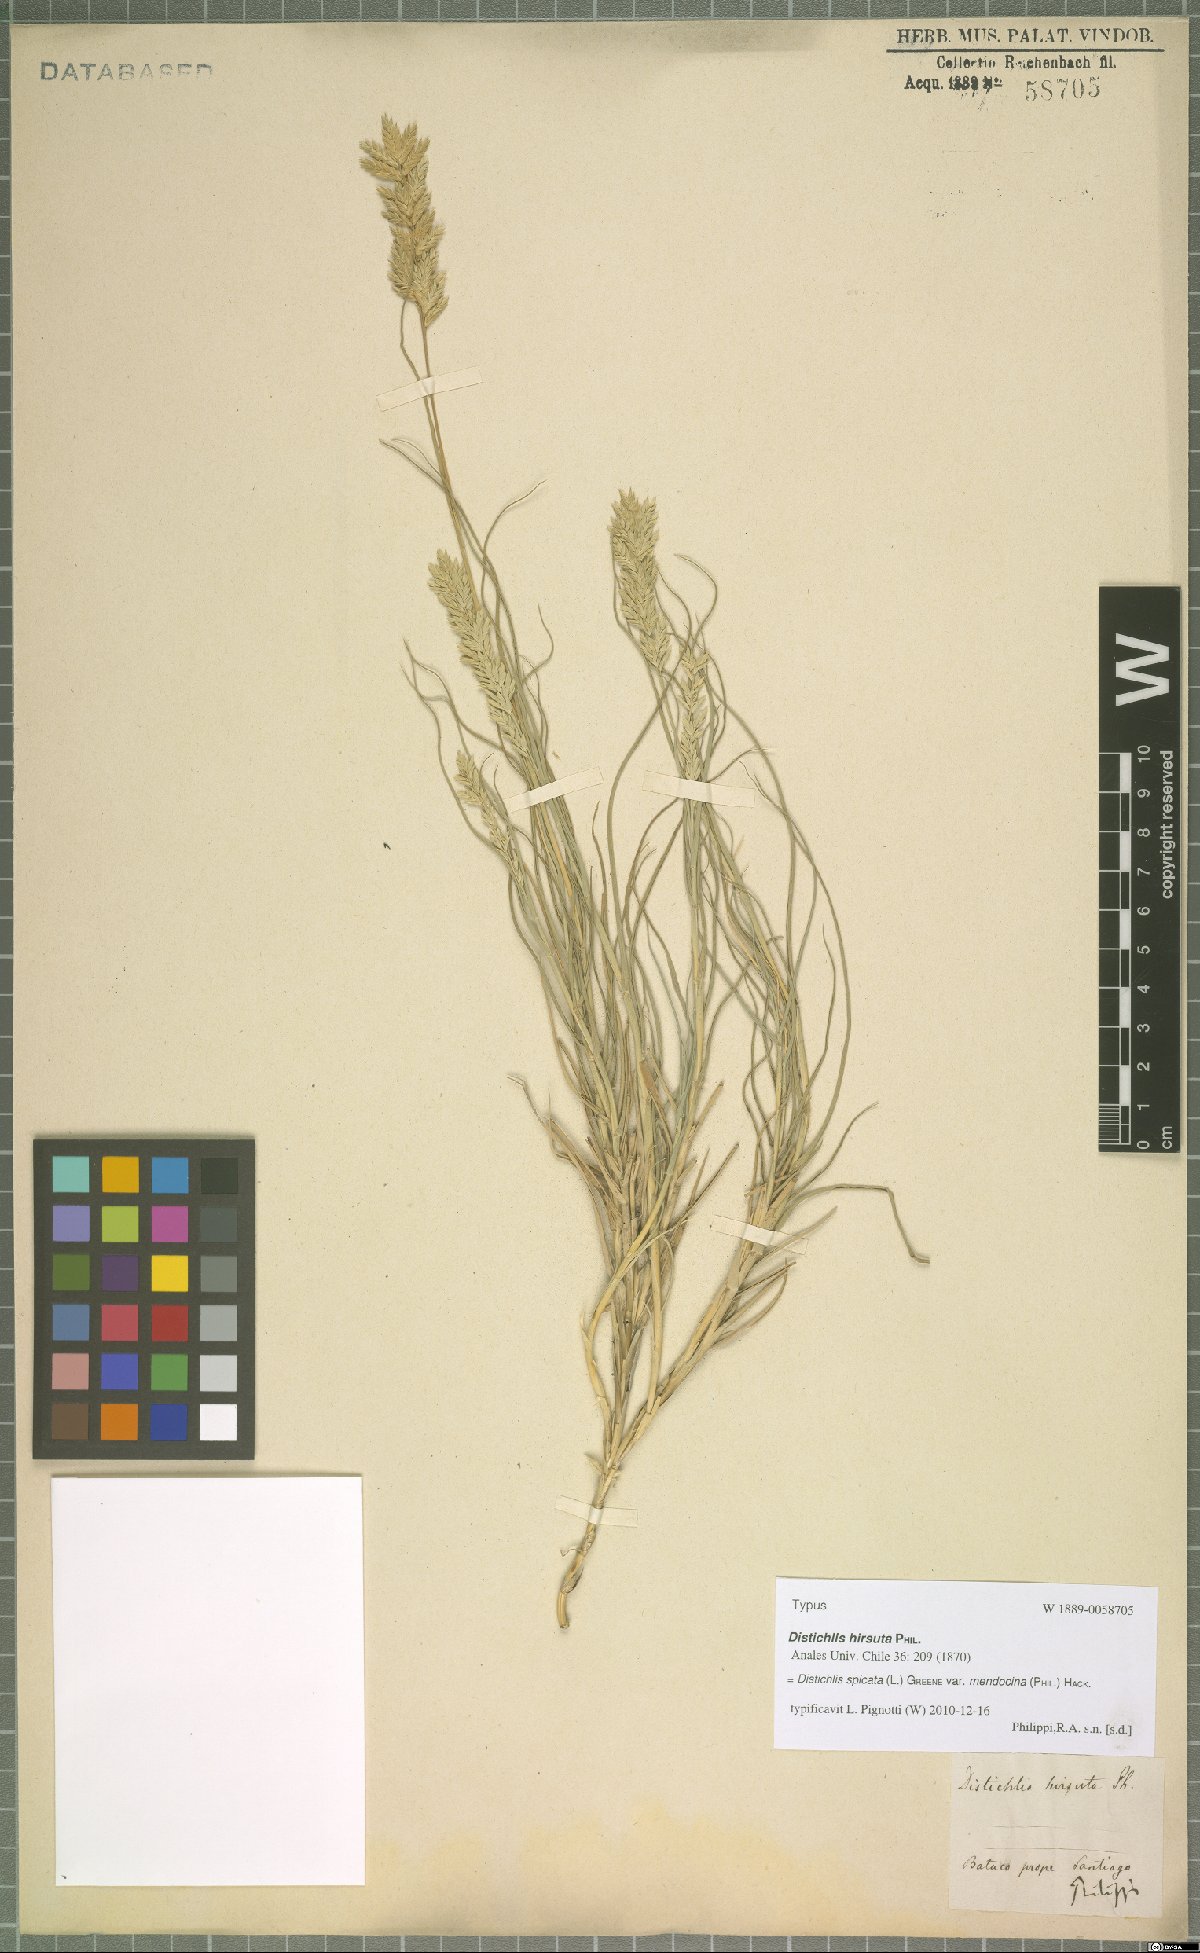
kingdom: Plantae
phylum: Tracheophyta
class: Liliopsida
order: Poales
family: Poaceae
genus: Distichlis
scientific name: Distichlis spicata
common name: Saltgrass
